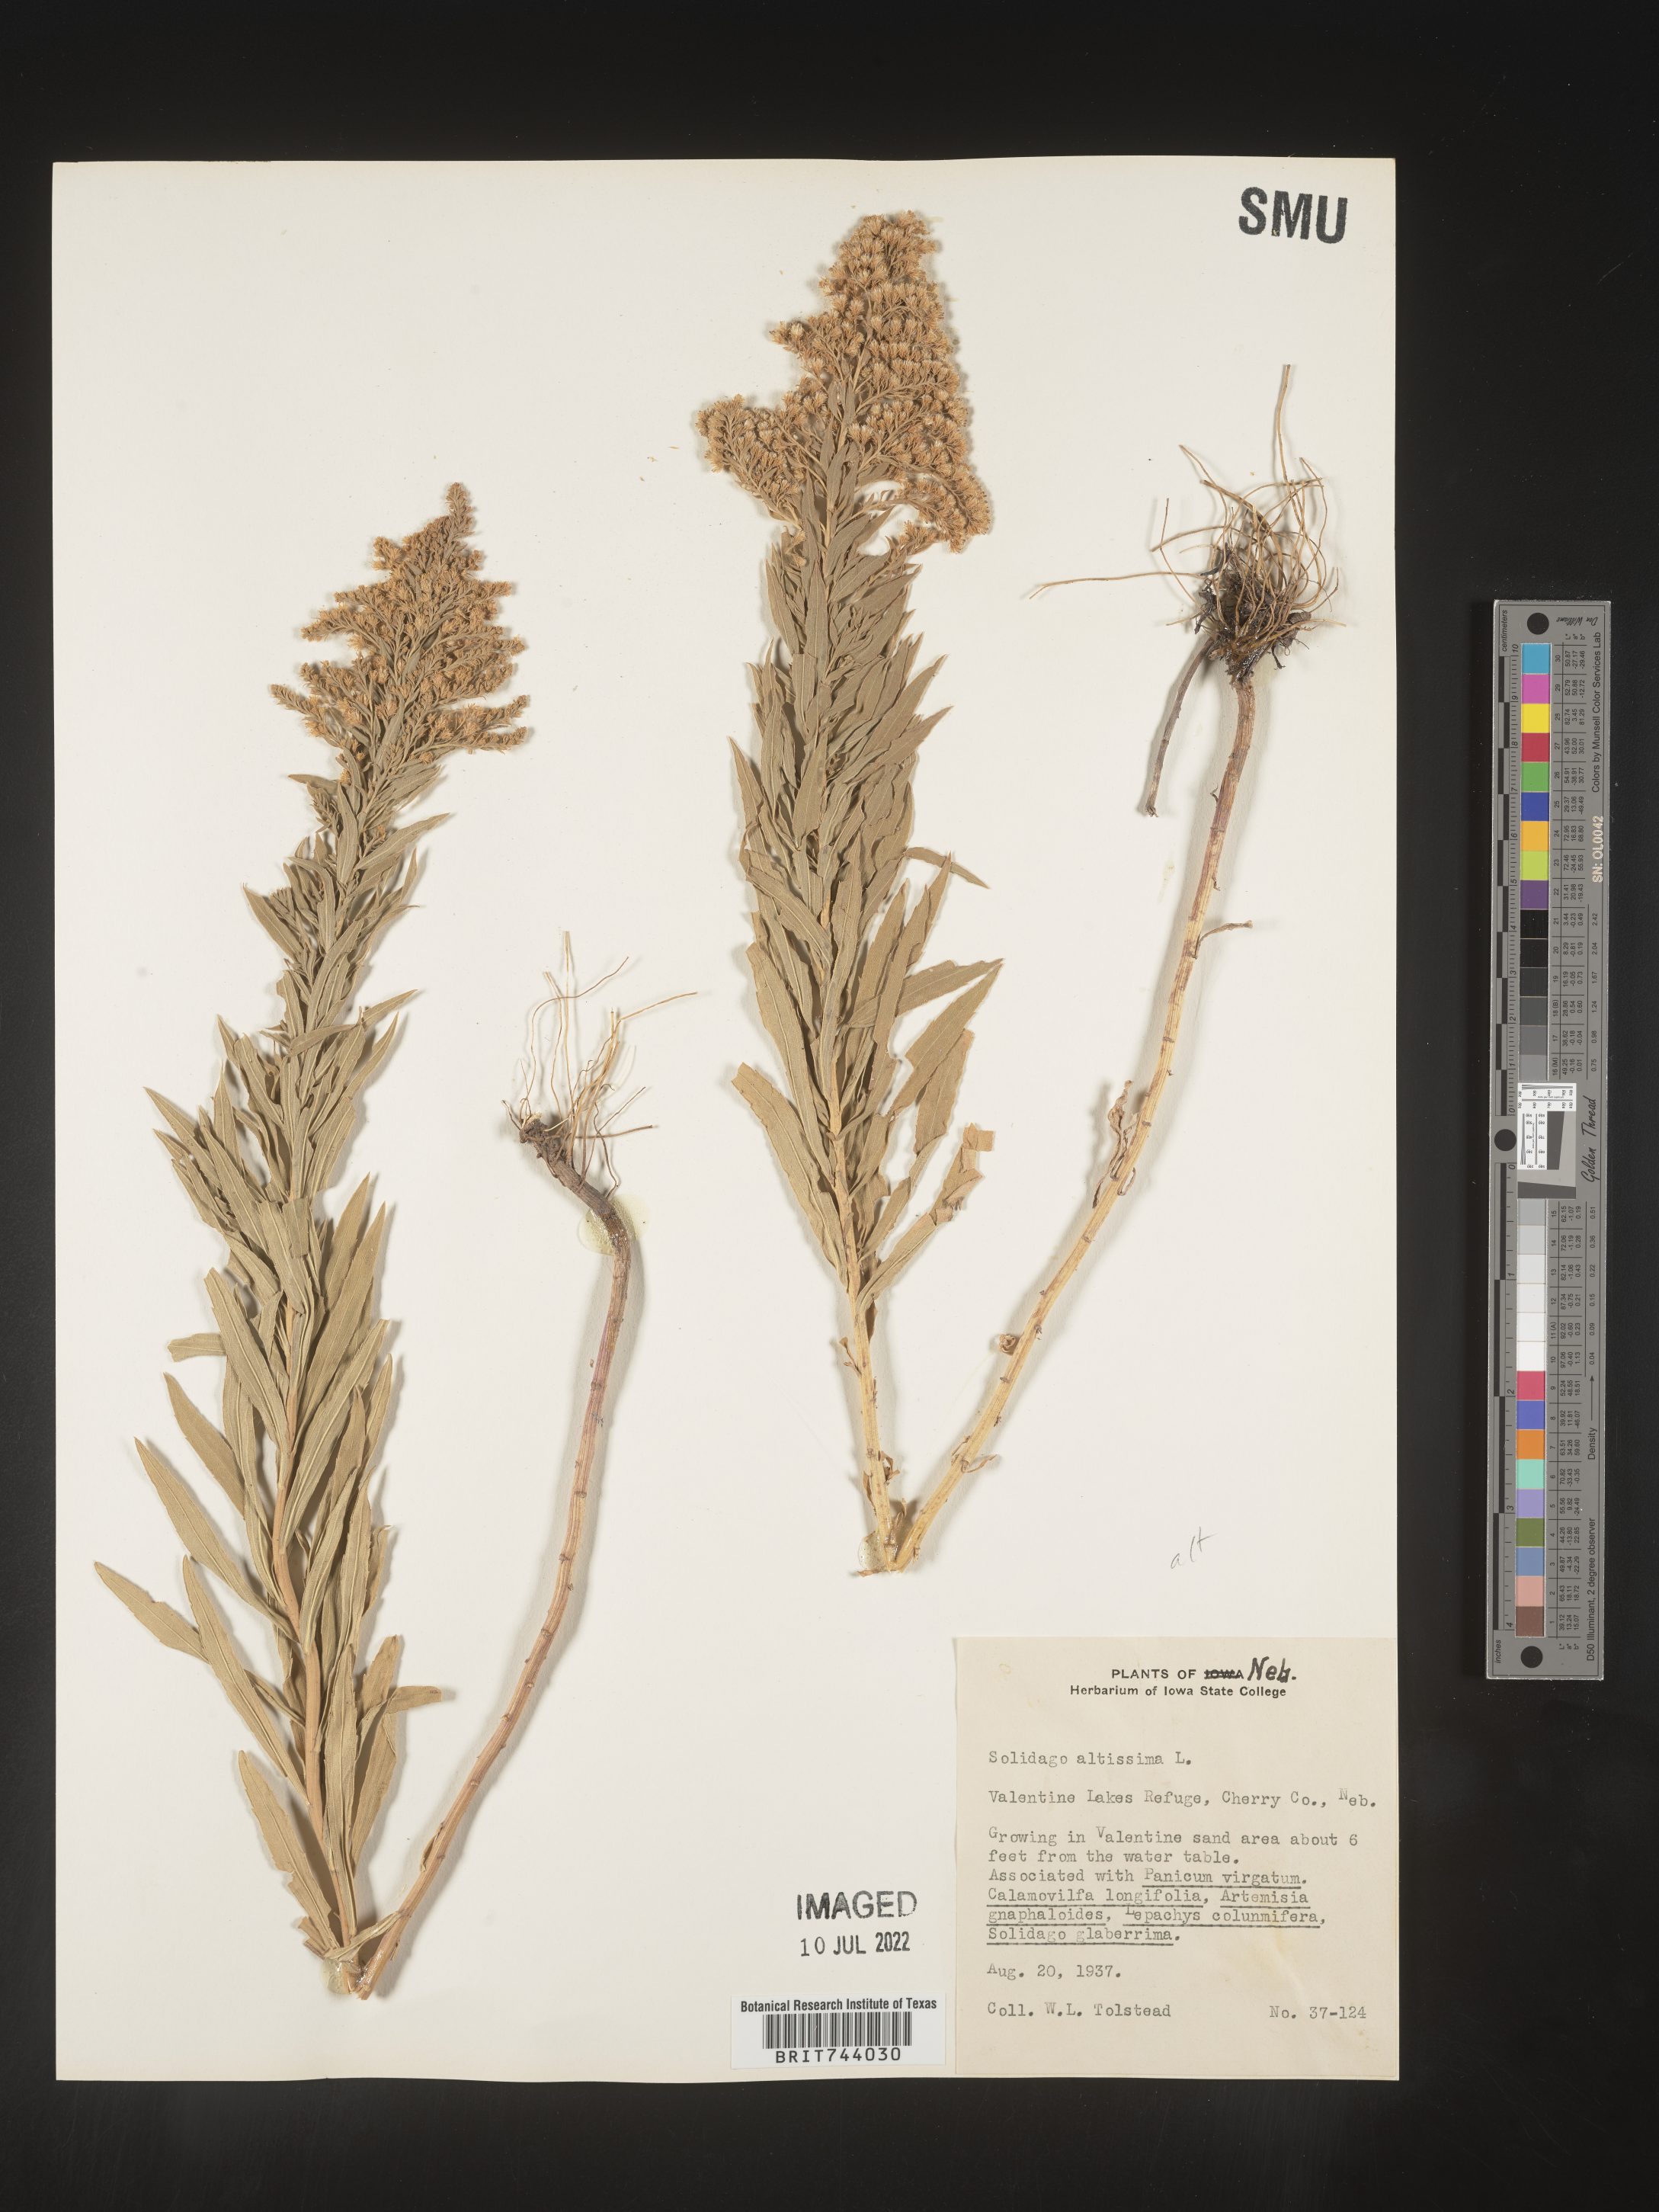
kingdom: Plantae
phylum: Tracheophyta
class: Magnoliopsida
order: Asterales
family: Asteraceae
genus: Solidago
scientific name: Solidago altissima
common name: Late goldenrod
